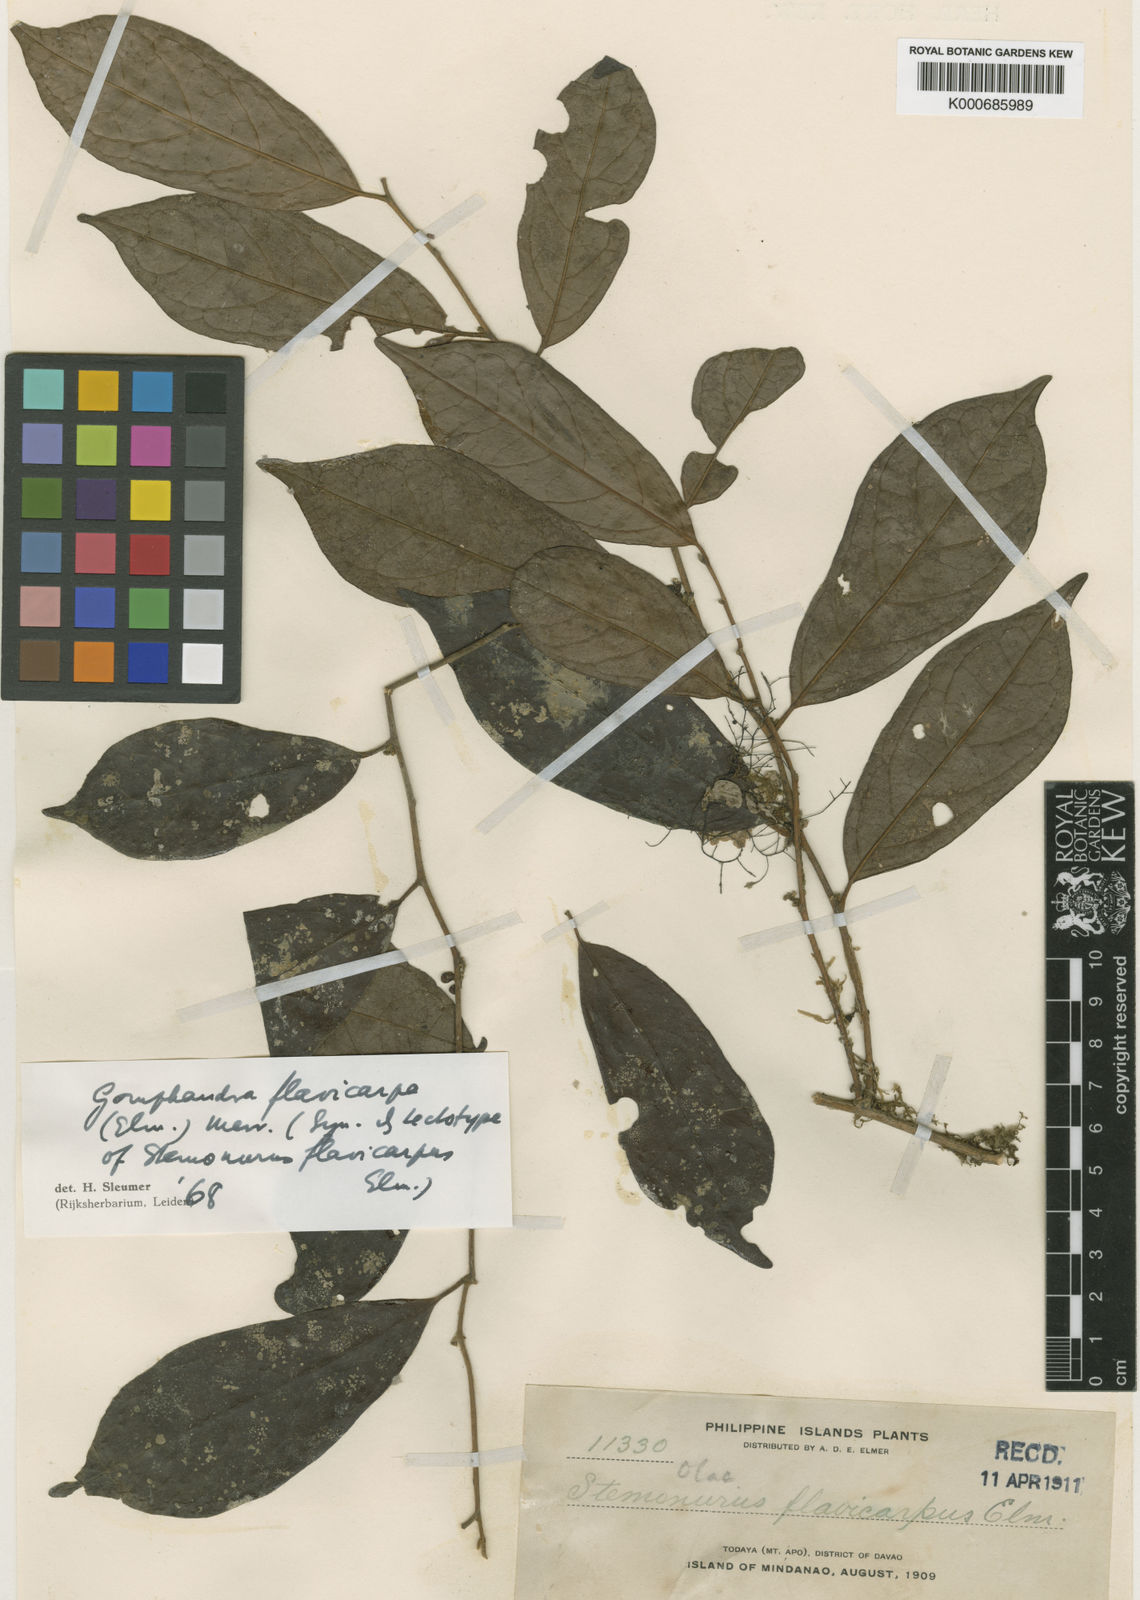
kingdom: Plantae
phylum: Tracheophyta
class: Magnoliopsida
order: Cardiopteridales
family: Stemonuraceae
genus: Gomphandra
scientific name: Gomphandra flavicarpa
